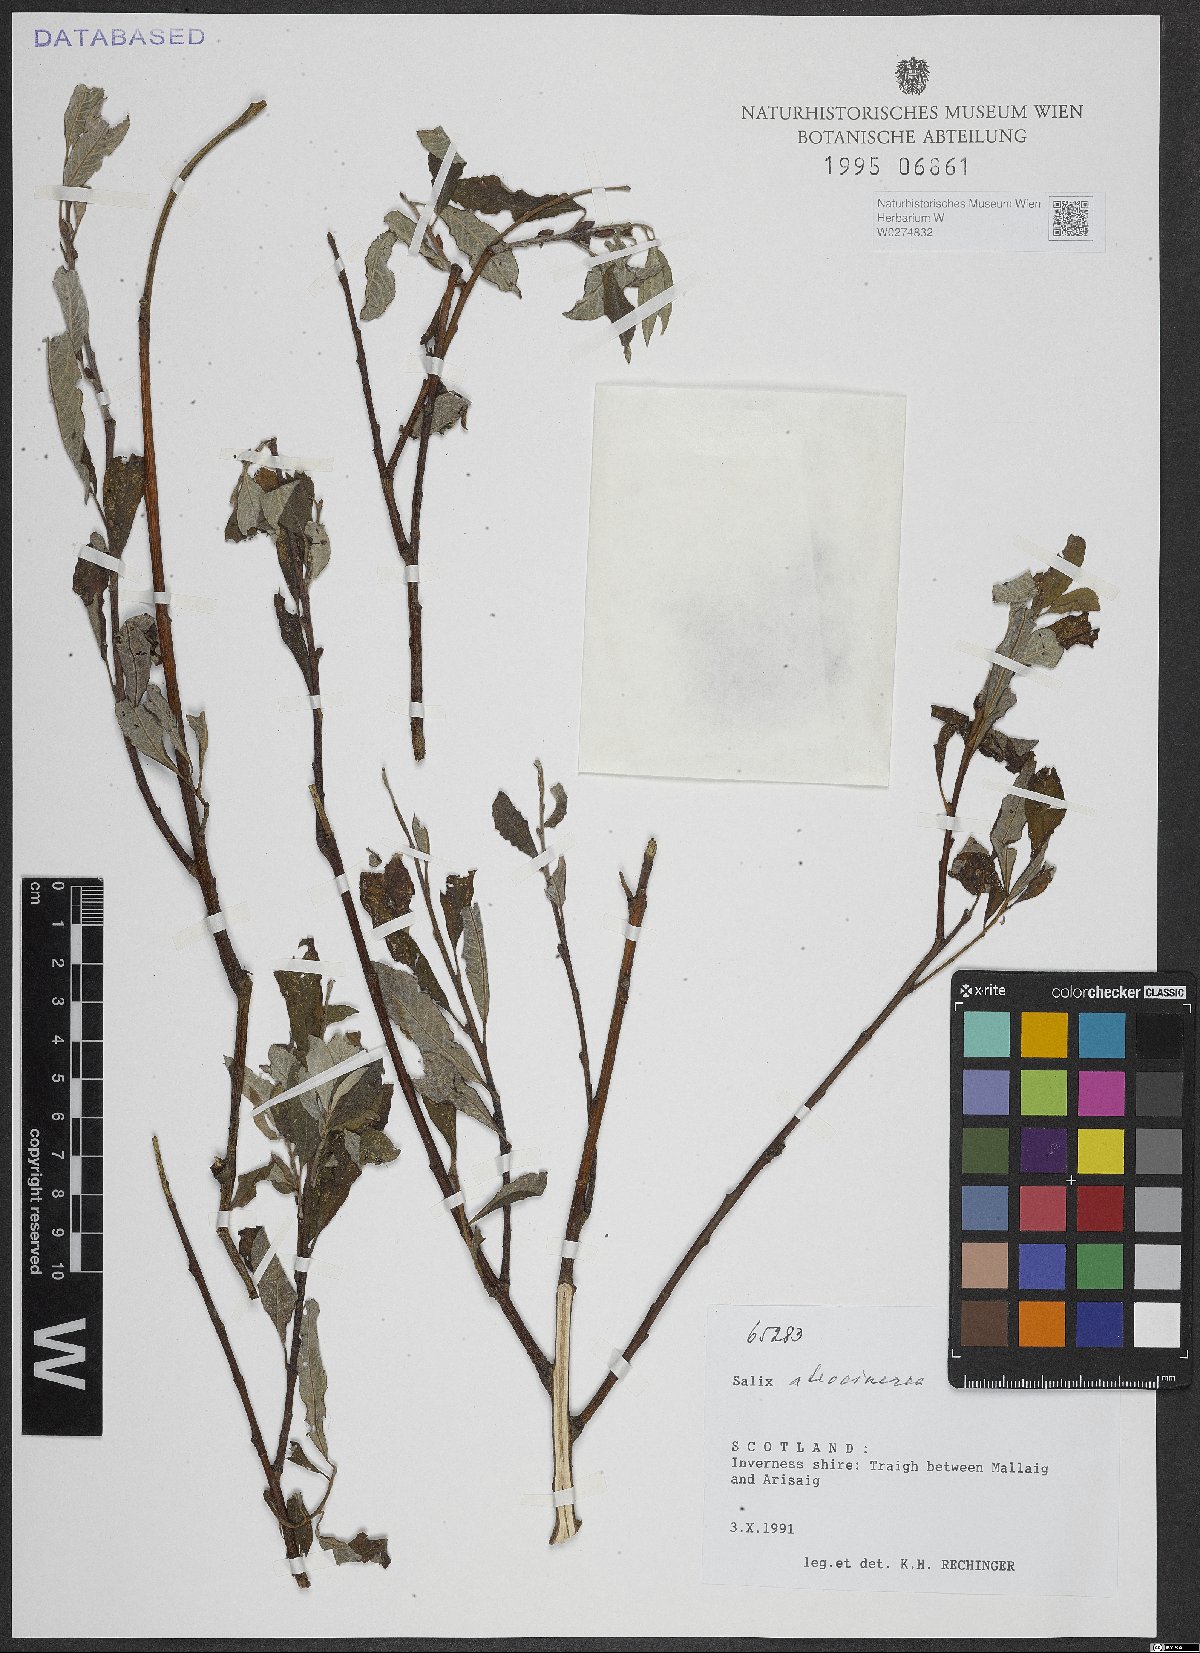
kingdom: Plantae
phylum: Tracheophyta
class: Magnoliopsida
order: Malpighiales
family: Salicaceae
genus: Salix
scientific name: Salix atrocinerea
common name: Rusty willow
